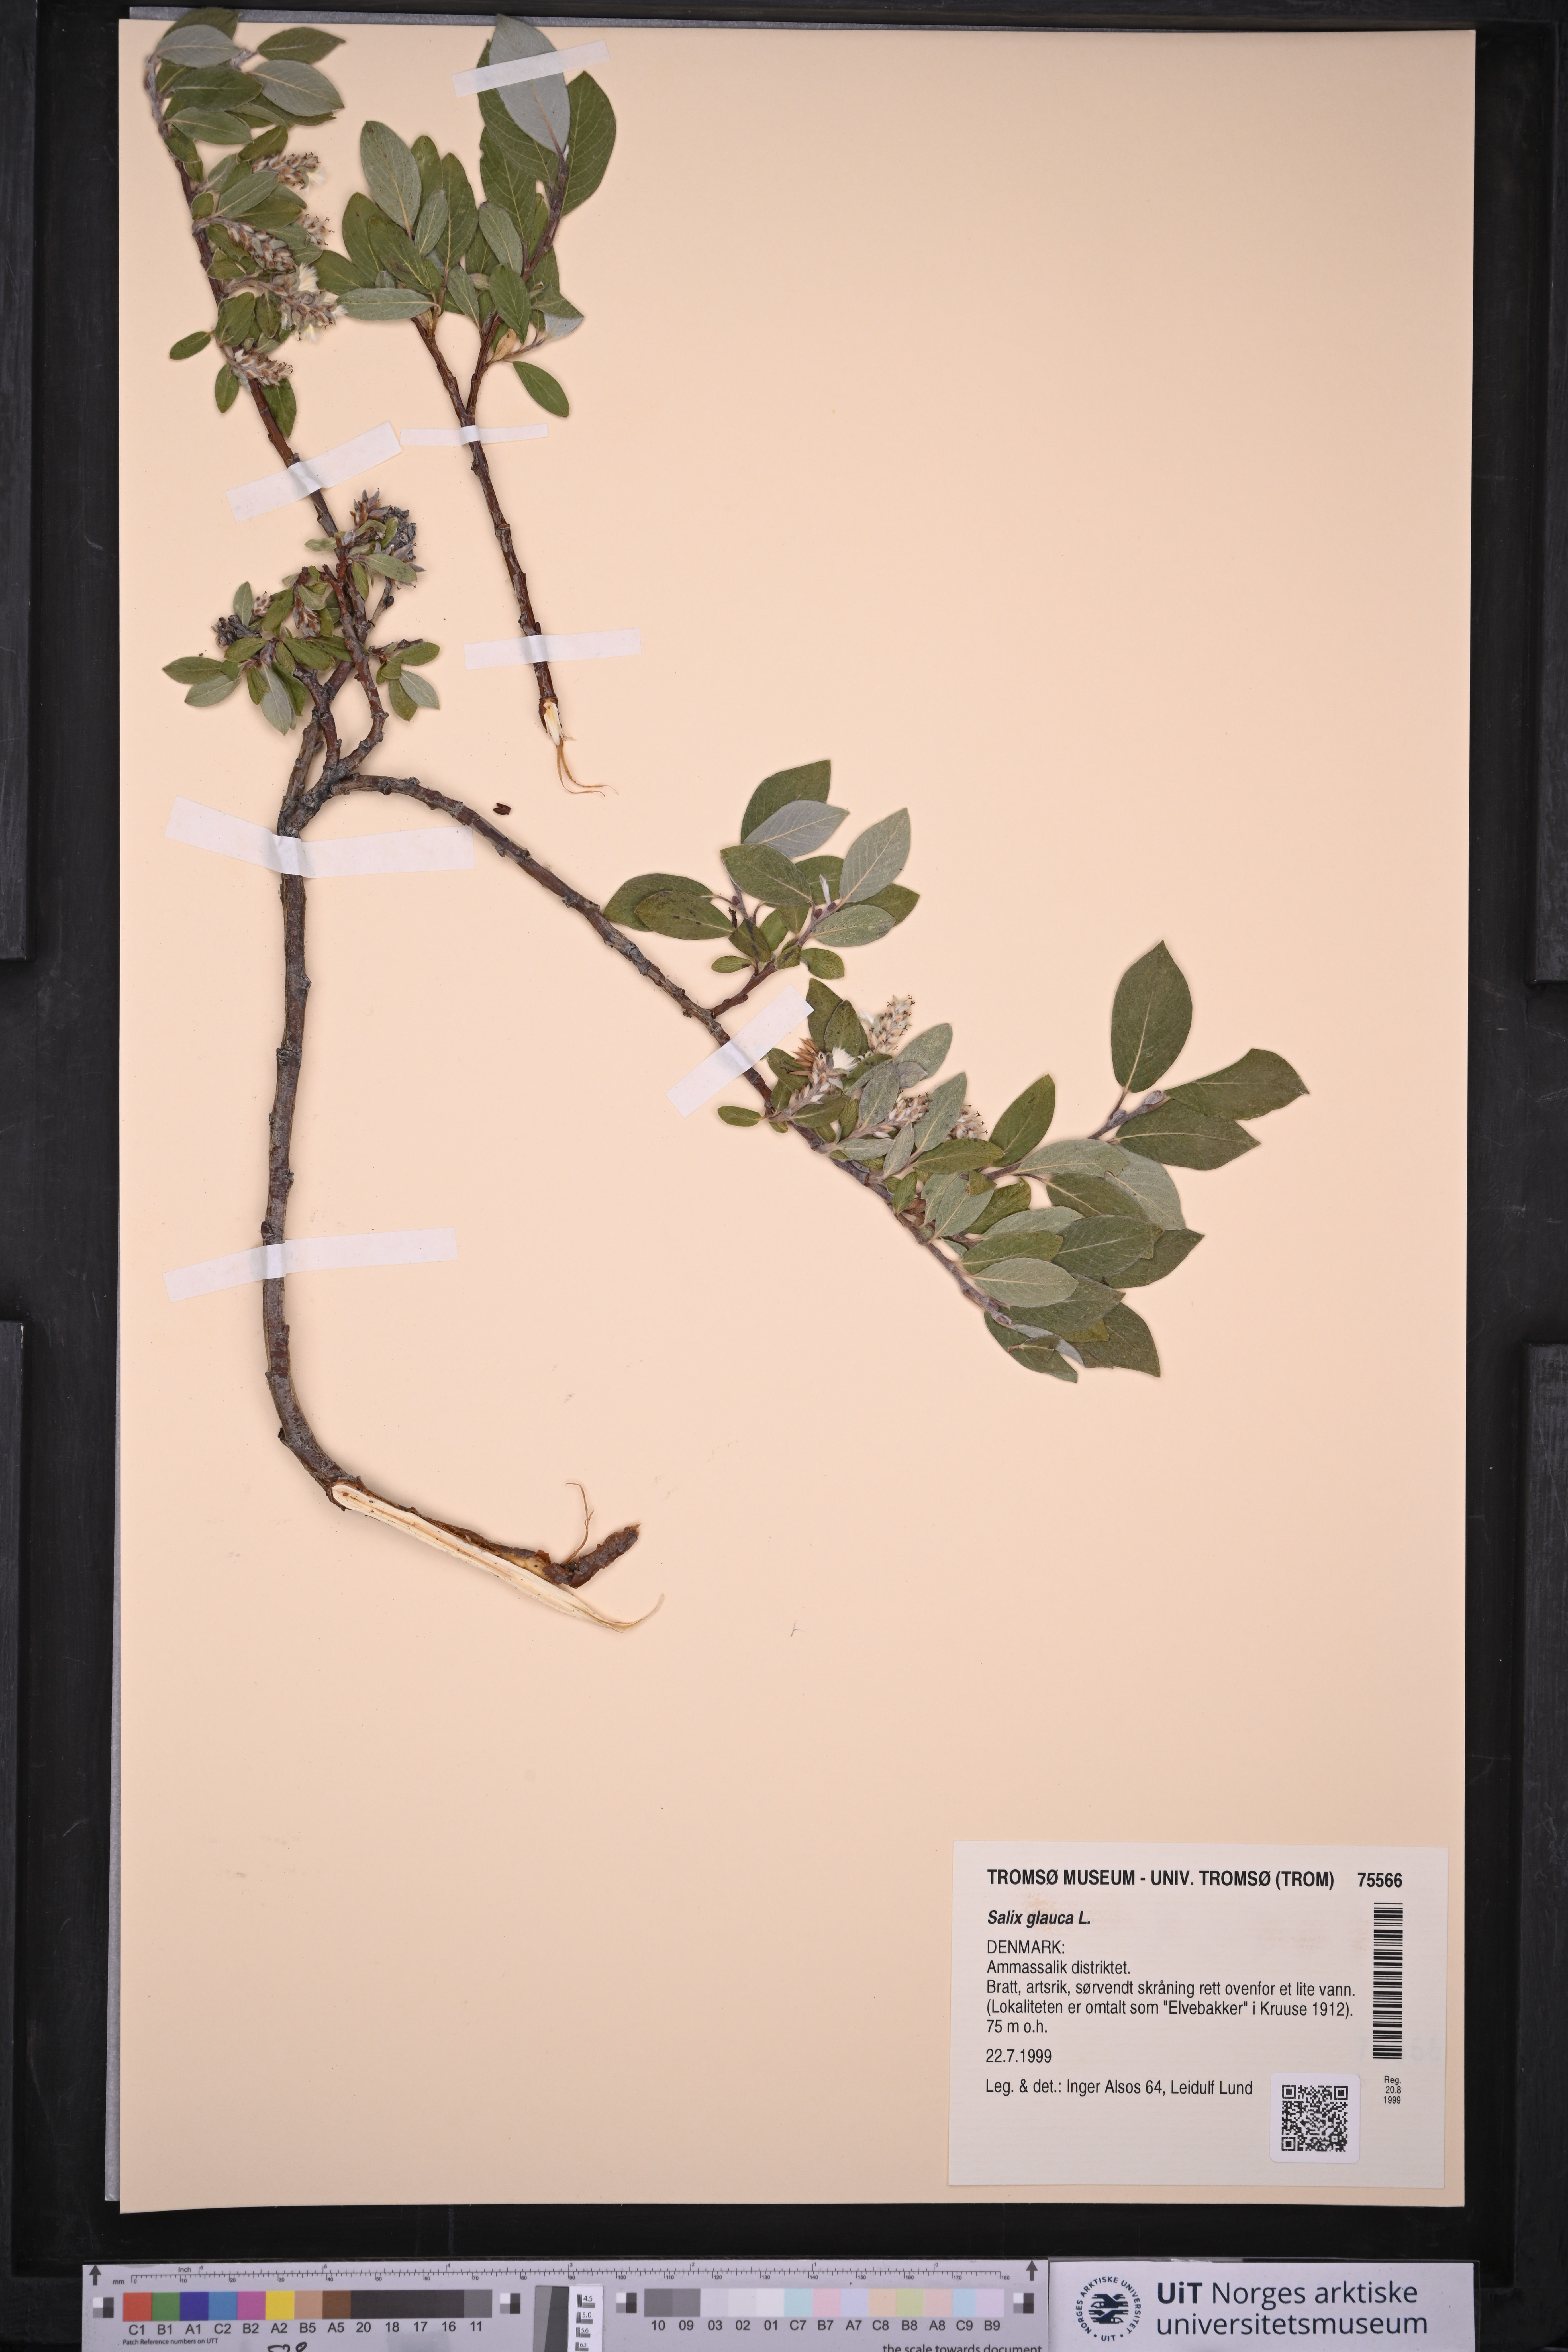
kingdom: Plantae
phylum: Tracheophyta
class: Magnoliopsida
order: Malpighiales
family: Salicaceae
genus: Salix
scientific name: Salix glauca
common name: Glaucous willow
